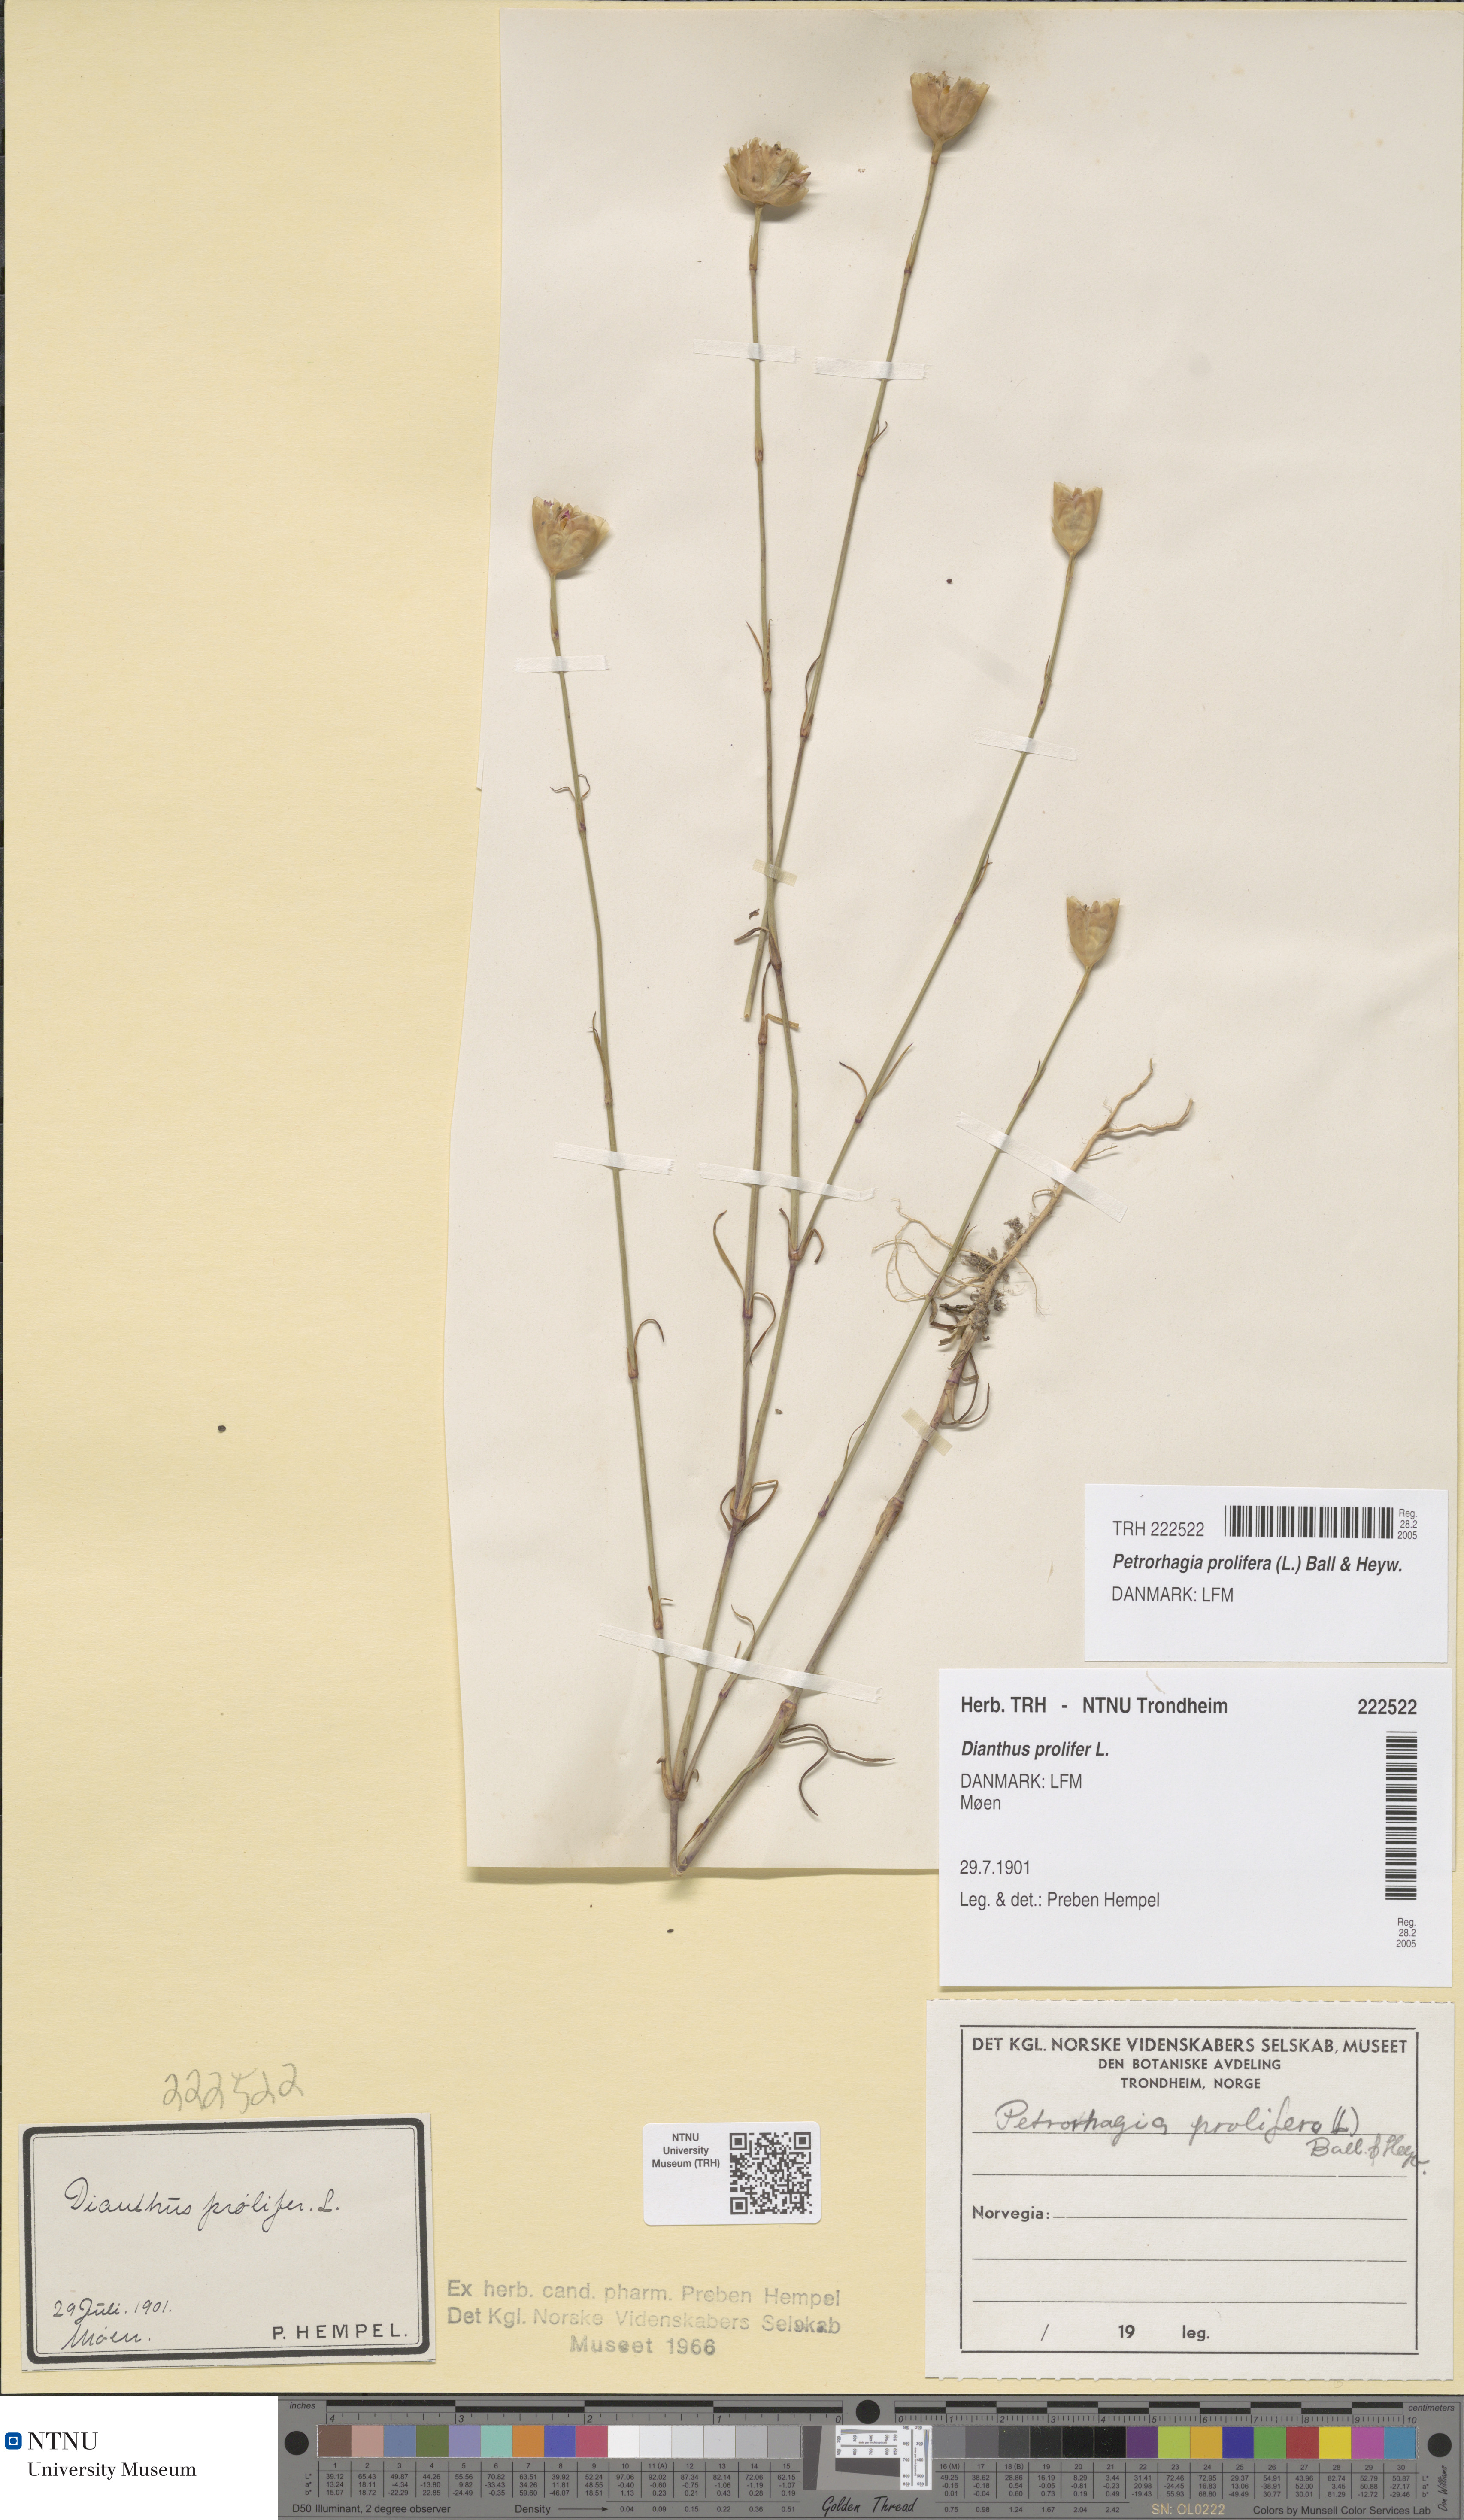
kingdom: Plantae
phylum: Tracheophyta
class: Magnoliopsida
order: Caryophyllales
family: Caryophyllaceae
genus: Petrorhagia
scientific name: Petrorhagia prolifera
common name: Proliferous pink
